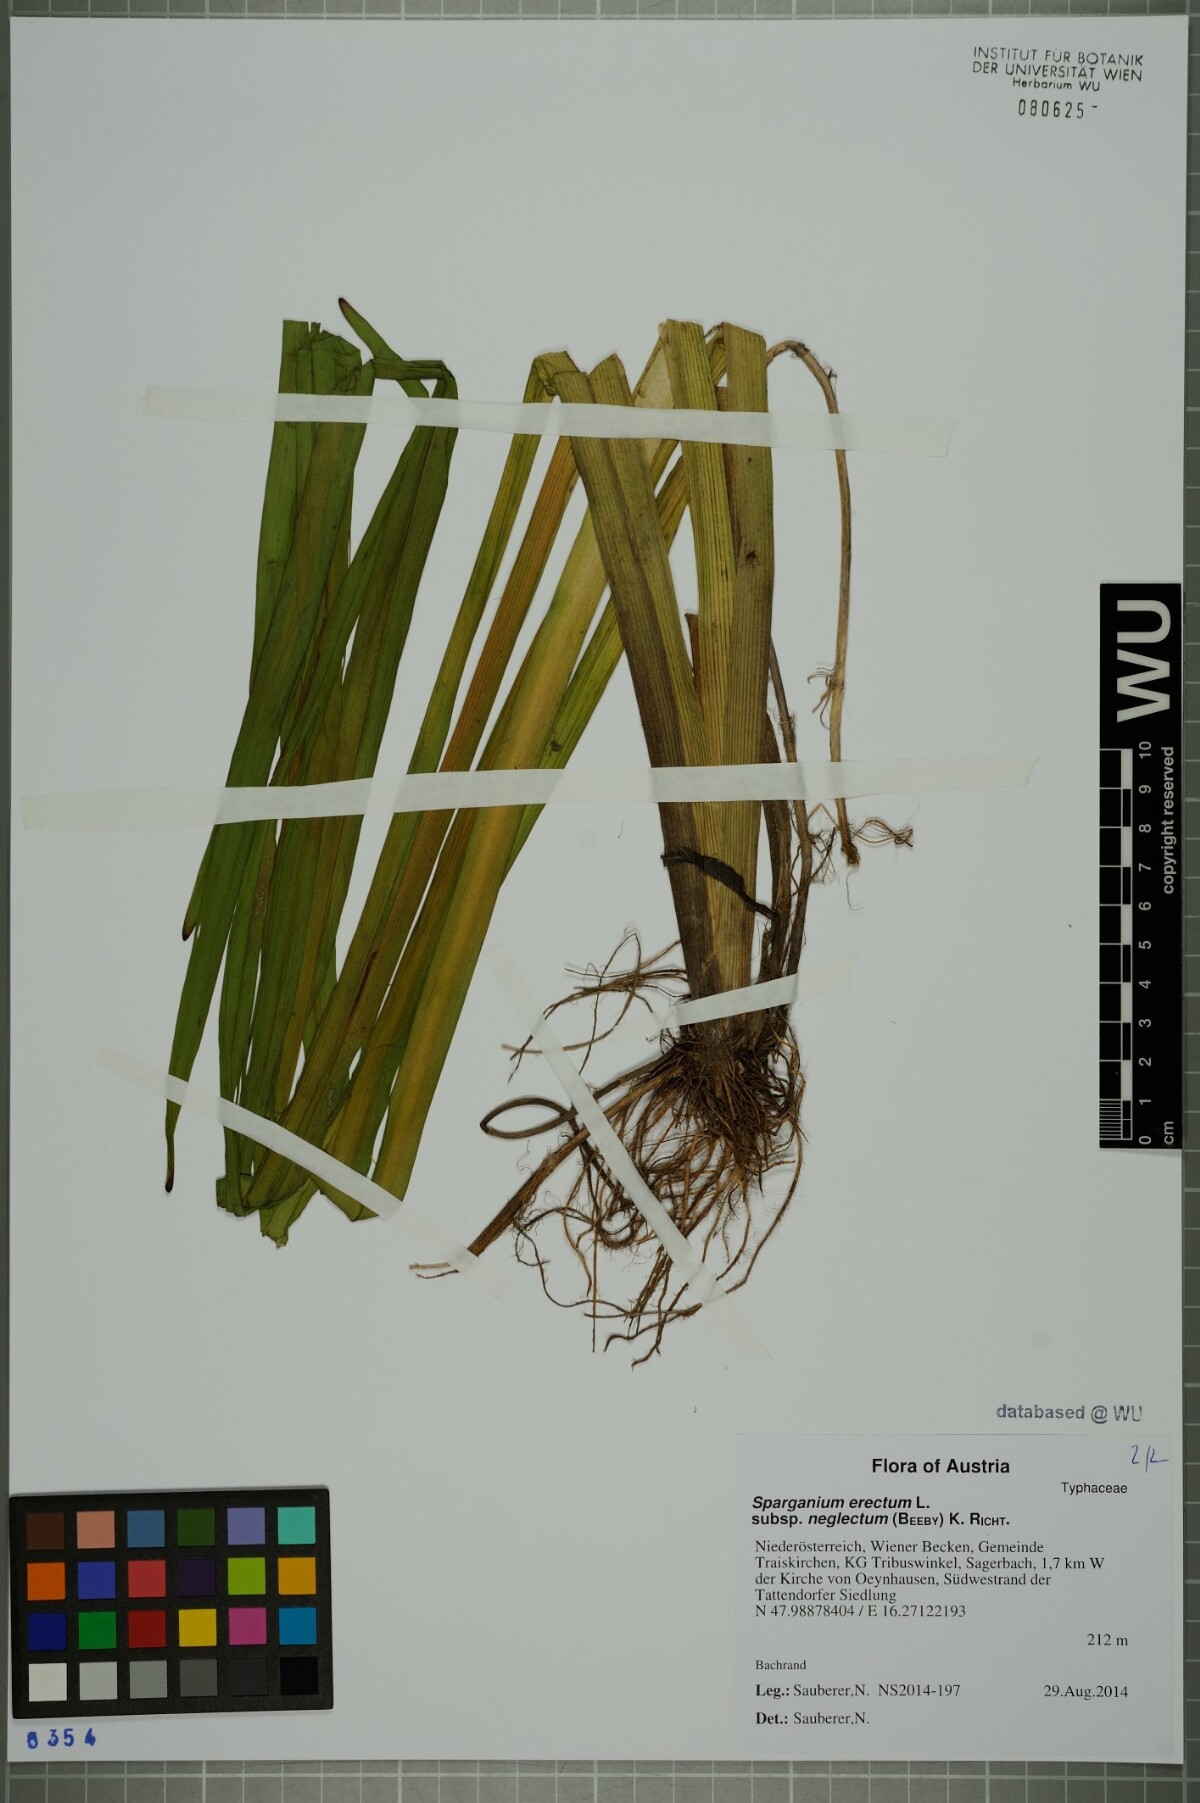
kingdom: Plantae
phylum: Tracheophyta
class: Liliopsida
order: Poales
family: Typhaceae
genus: Sparganium
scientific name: Sparganium erectum
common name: Branched bur-reed
